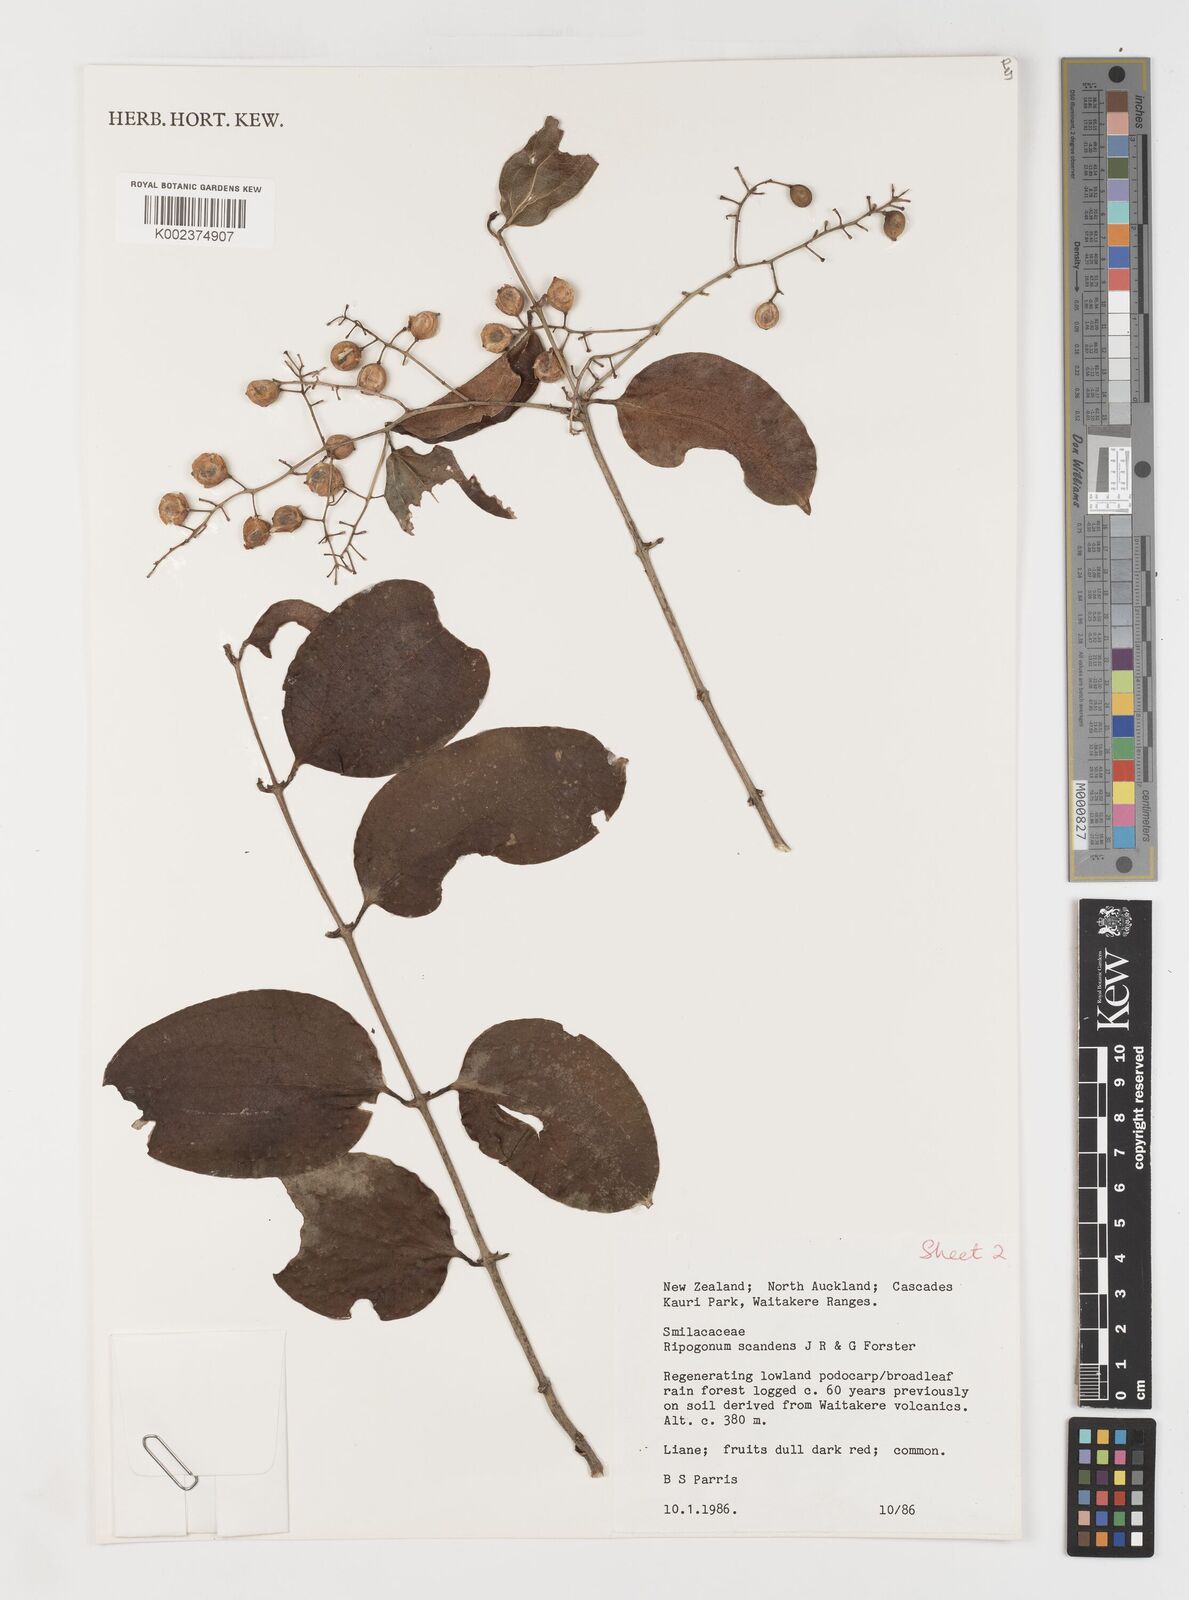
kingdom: Plantae
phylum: Tracheophyta
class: Liliopsida
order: Liliales
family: Ripogonaceae
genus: Ripogonum
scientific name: Ripogonum scandens
